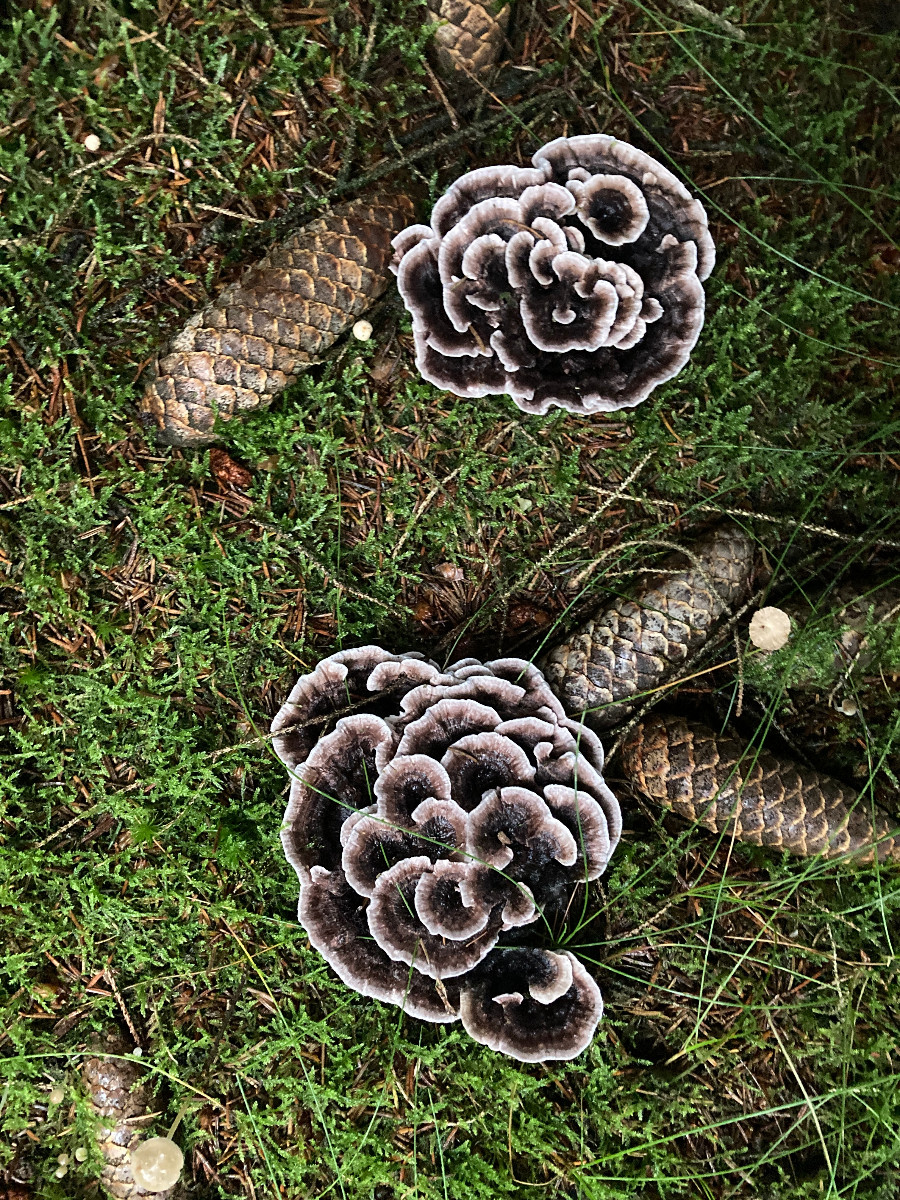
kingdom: Fungi
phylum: Basidiomycota
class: Agaricomycetes
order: Thelephorales
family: Thelephoraceae
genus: Phellodon
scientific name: Phellodon tomentosus
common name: vellugtende duftpigsvamp
